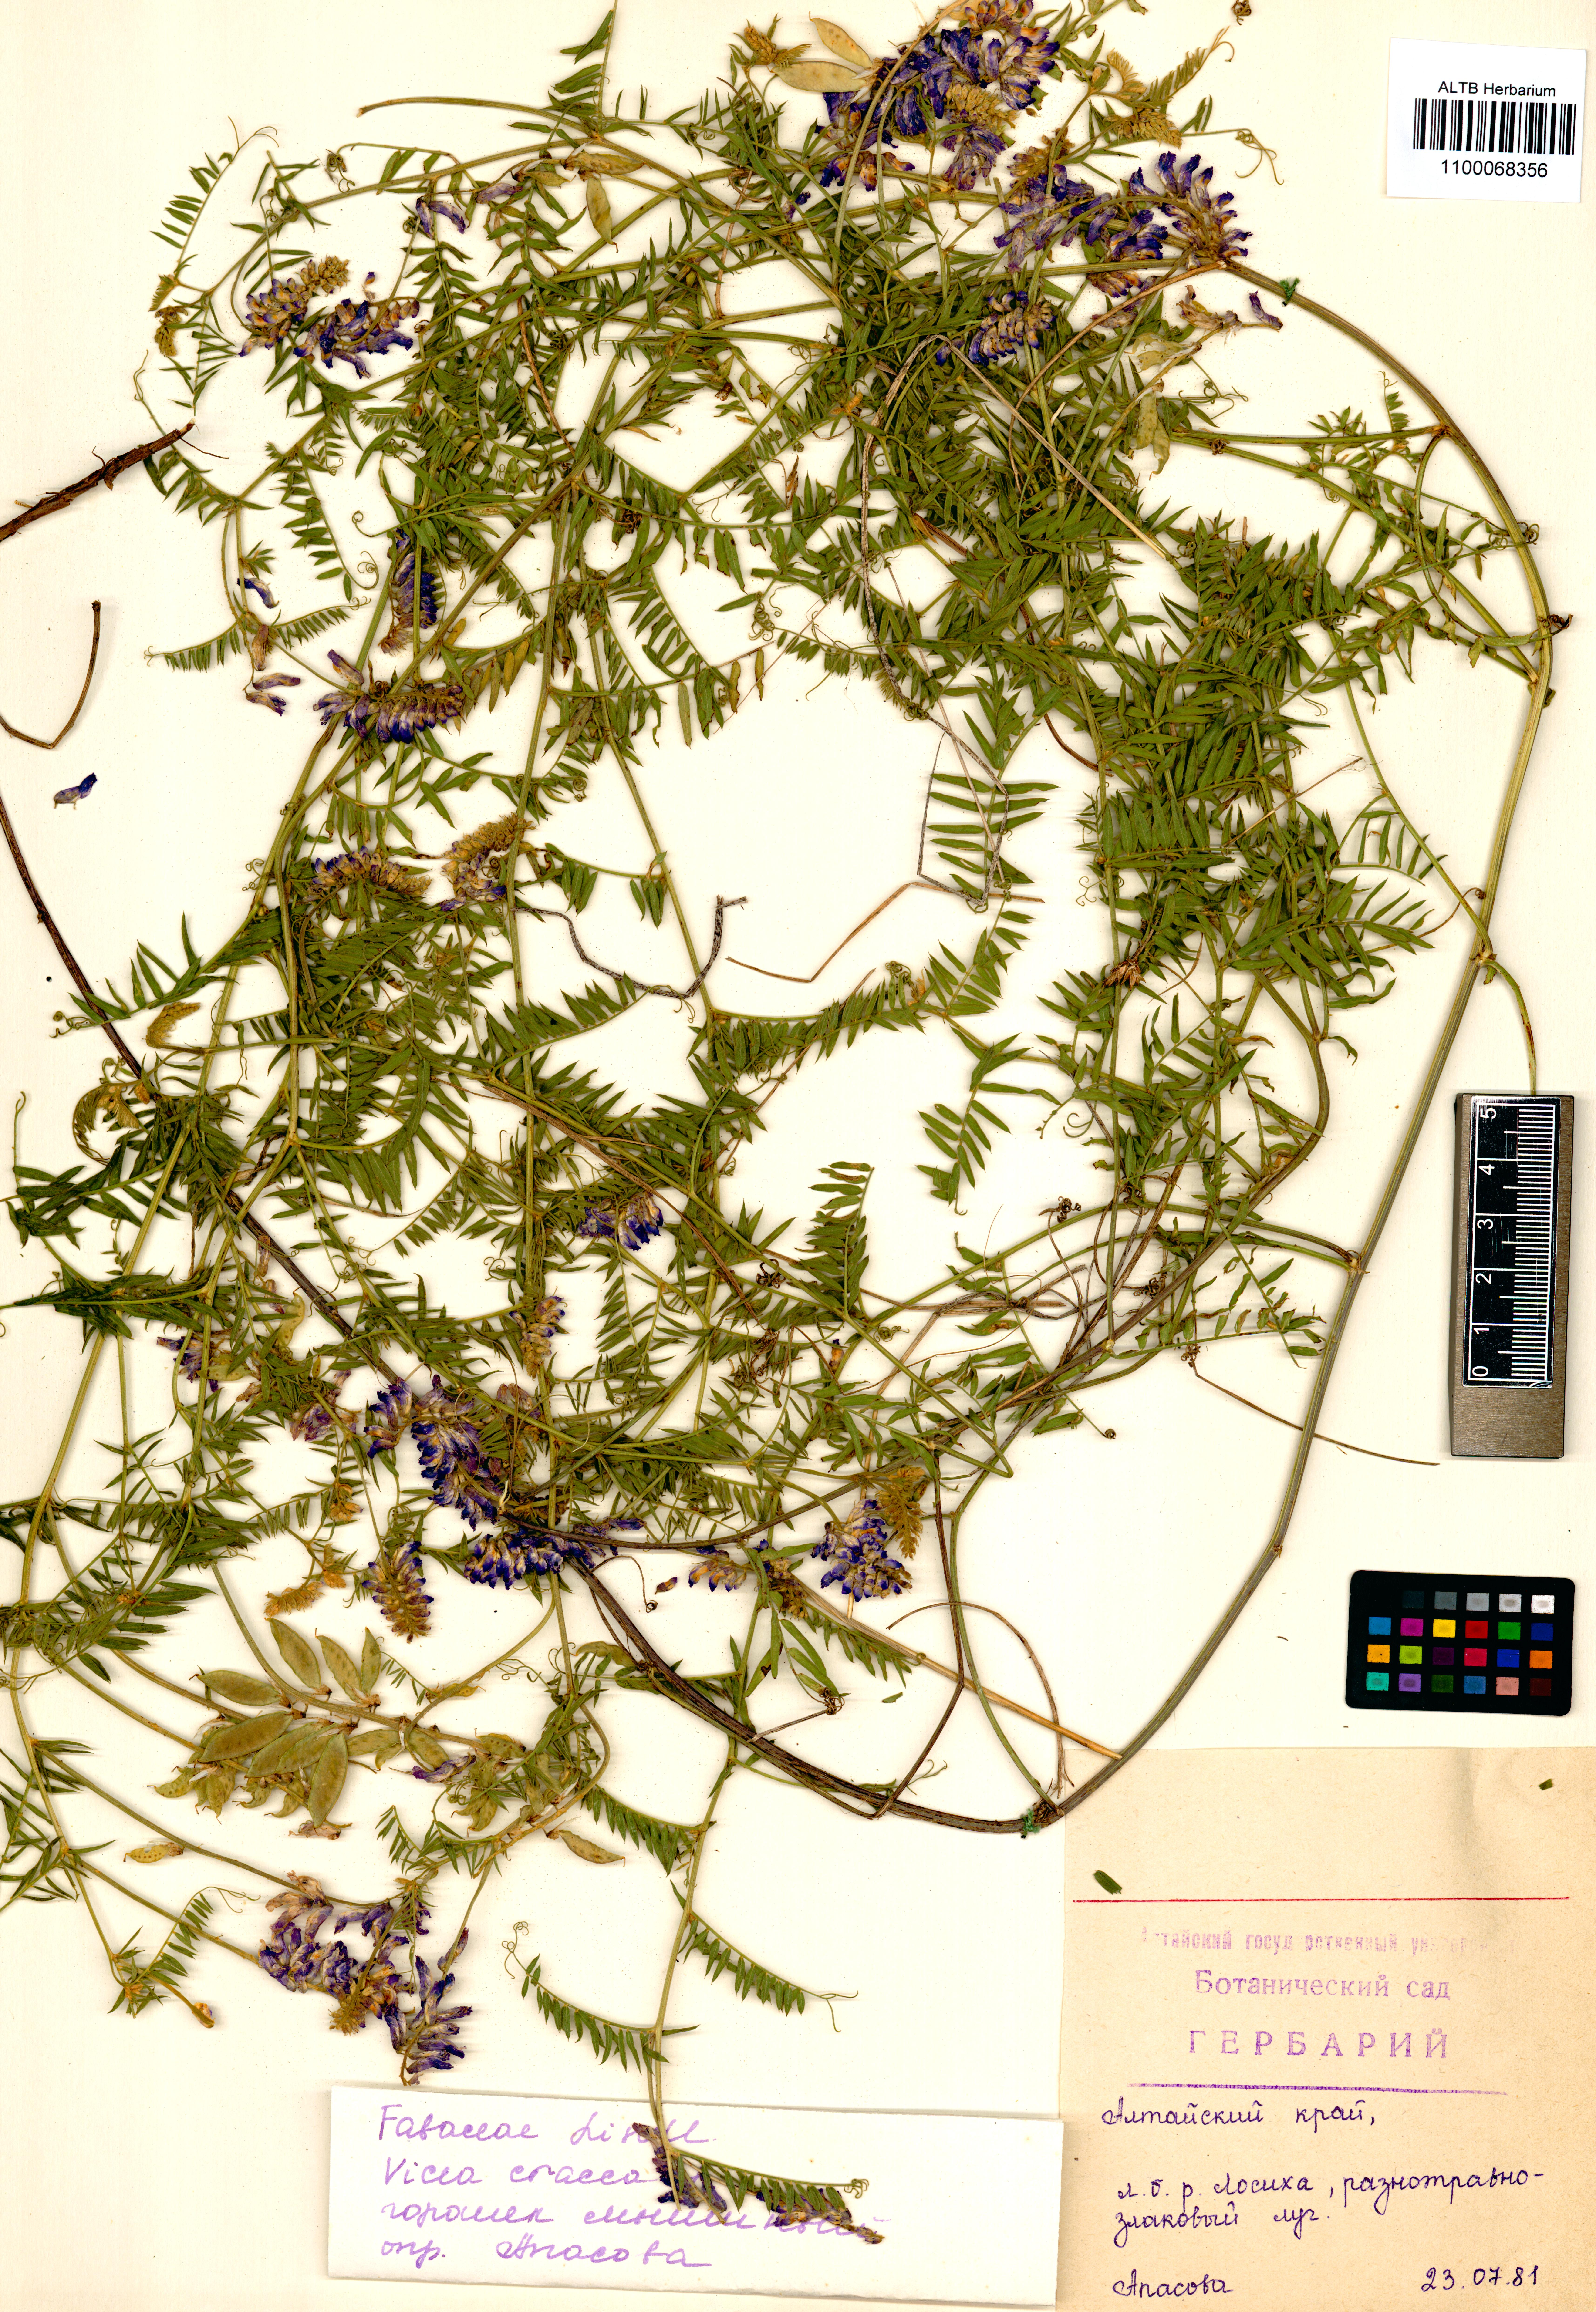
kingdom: Plantae
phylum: Tracheophyta
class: Magnoliopsida
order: Fabales
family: Fabaceae
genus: Vicia
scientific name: Vicia cracca
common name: Bird vetch
